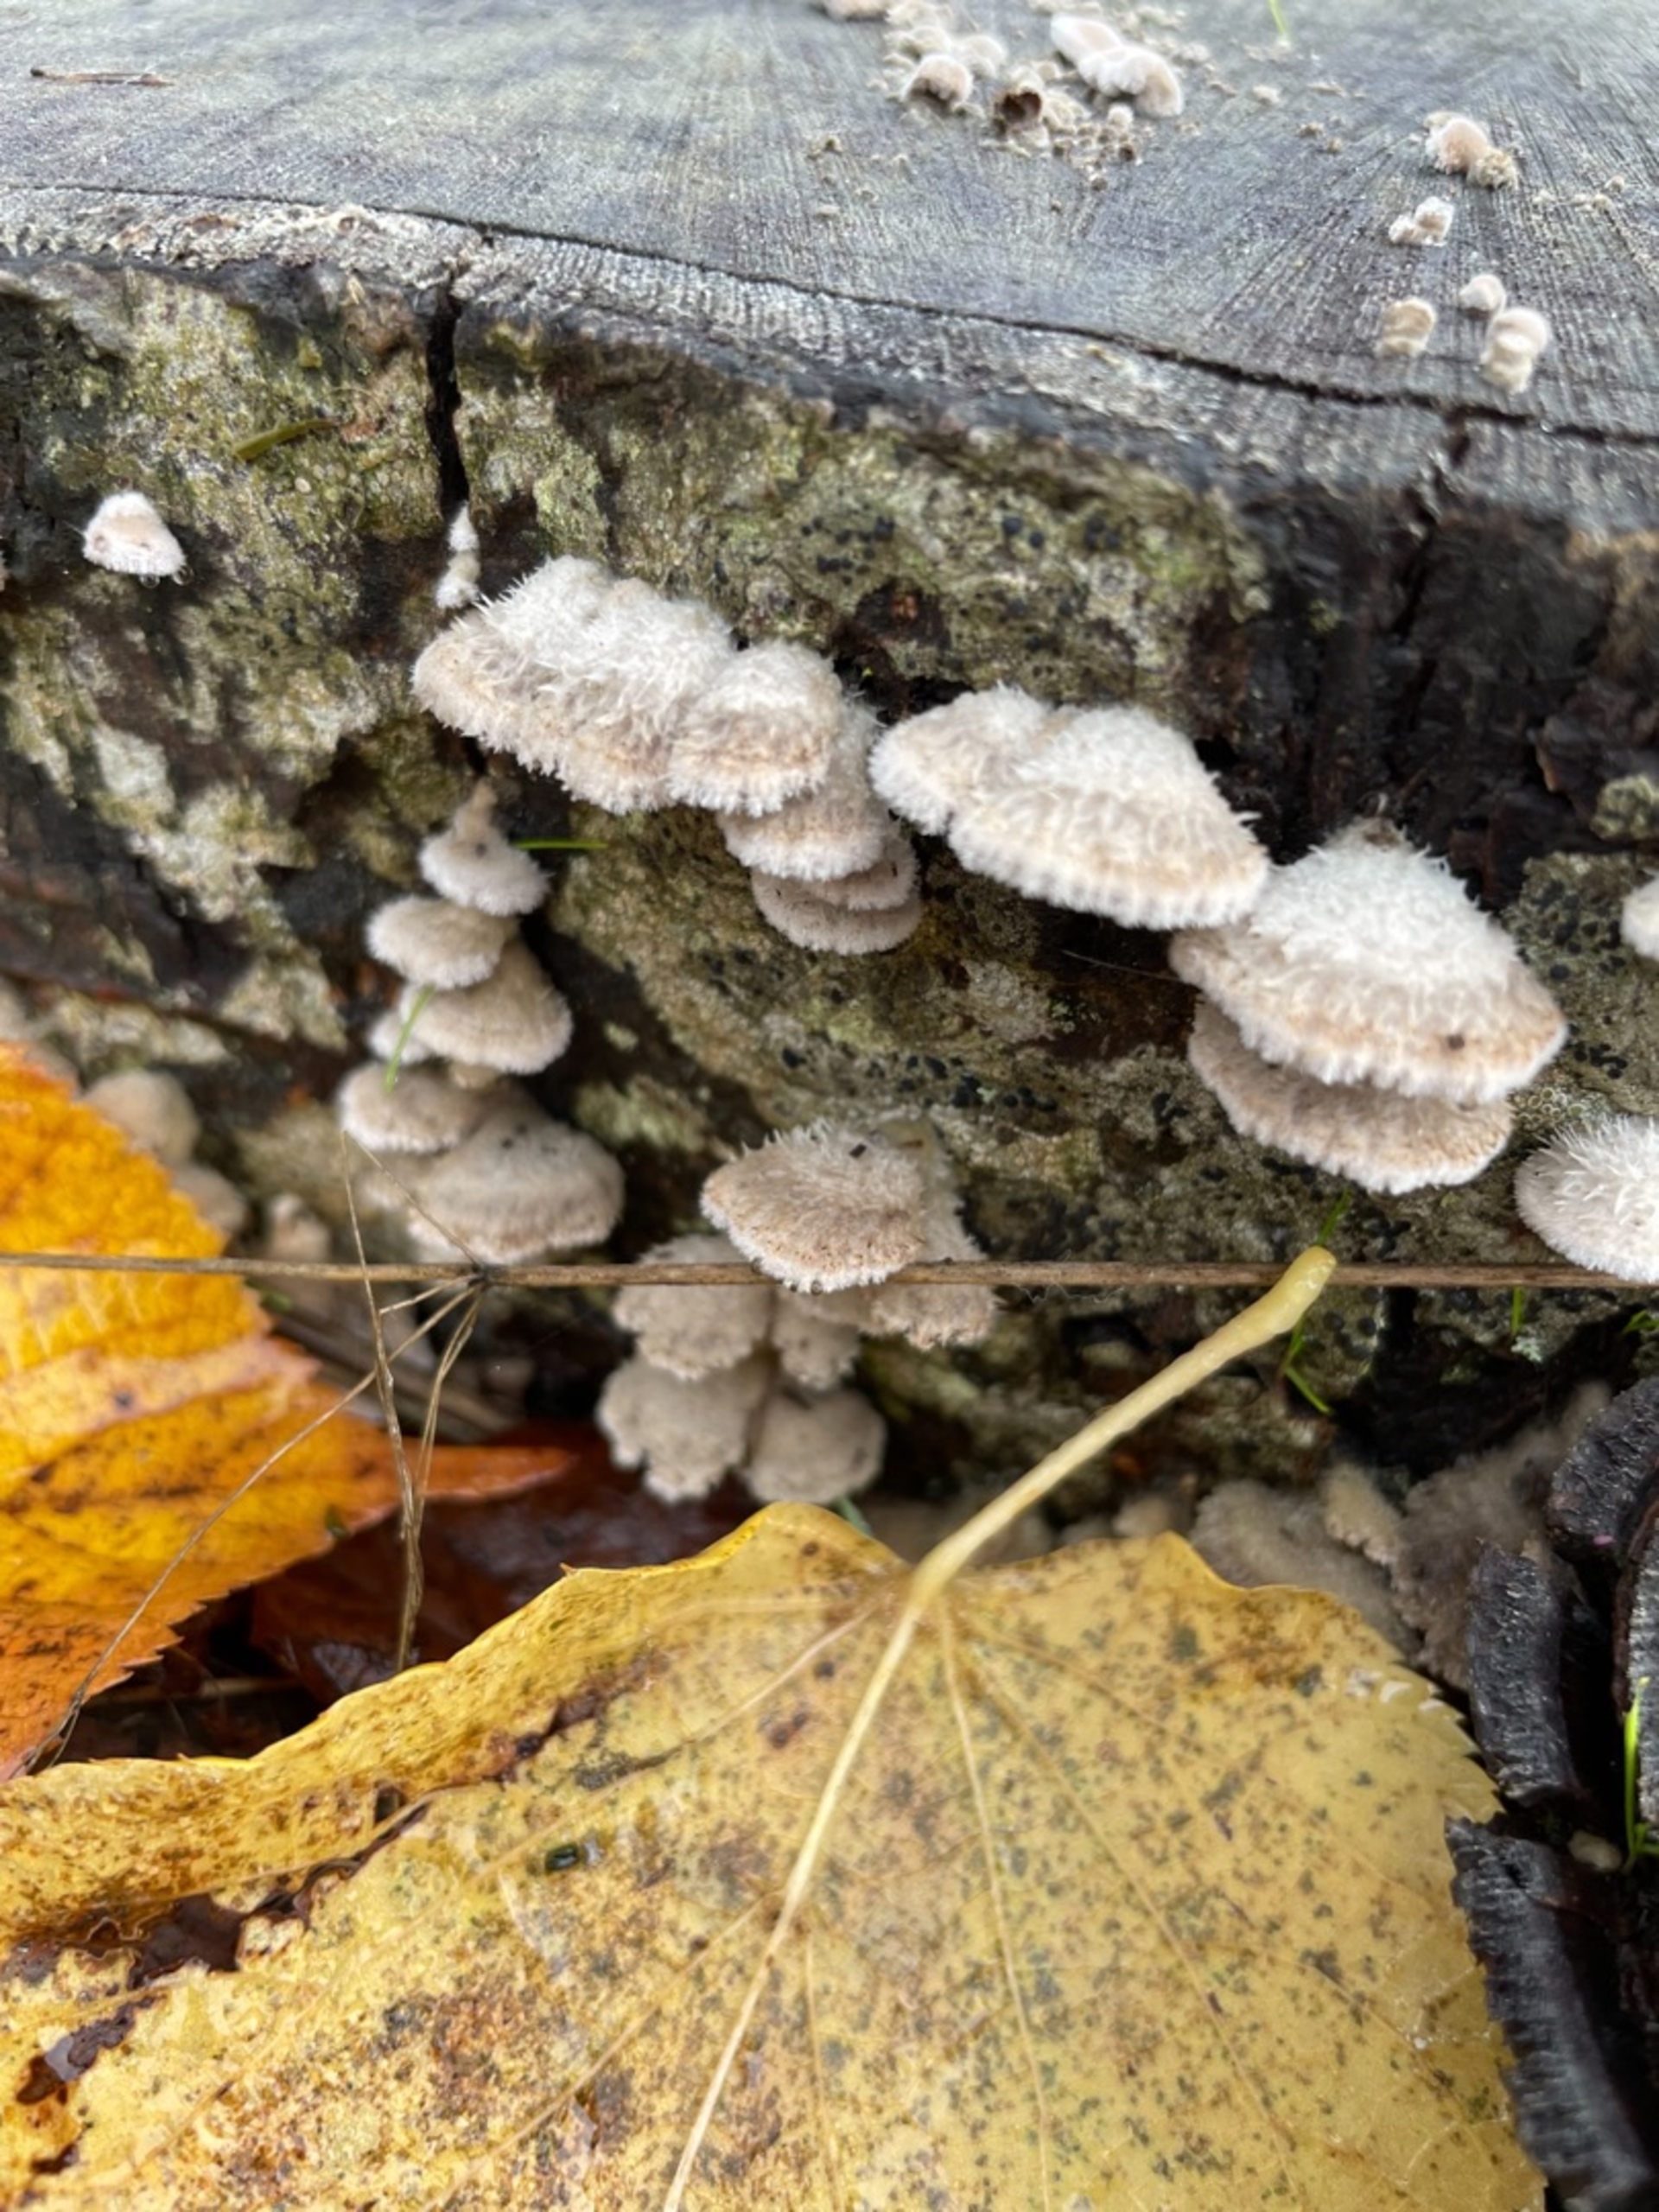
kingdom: Fungi
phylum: Basidiomycota
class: Agaricomycetes
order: Agaricales
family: Schizophyllaceae
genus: Schizophyllum
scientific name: Schizophyllum commune
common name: Kløvblad
